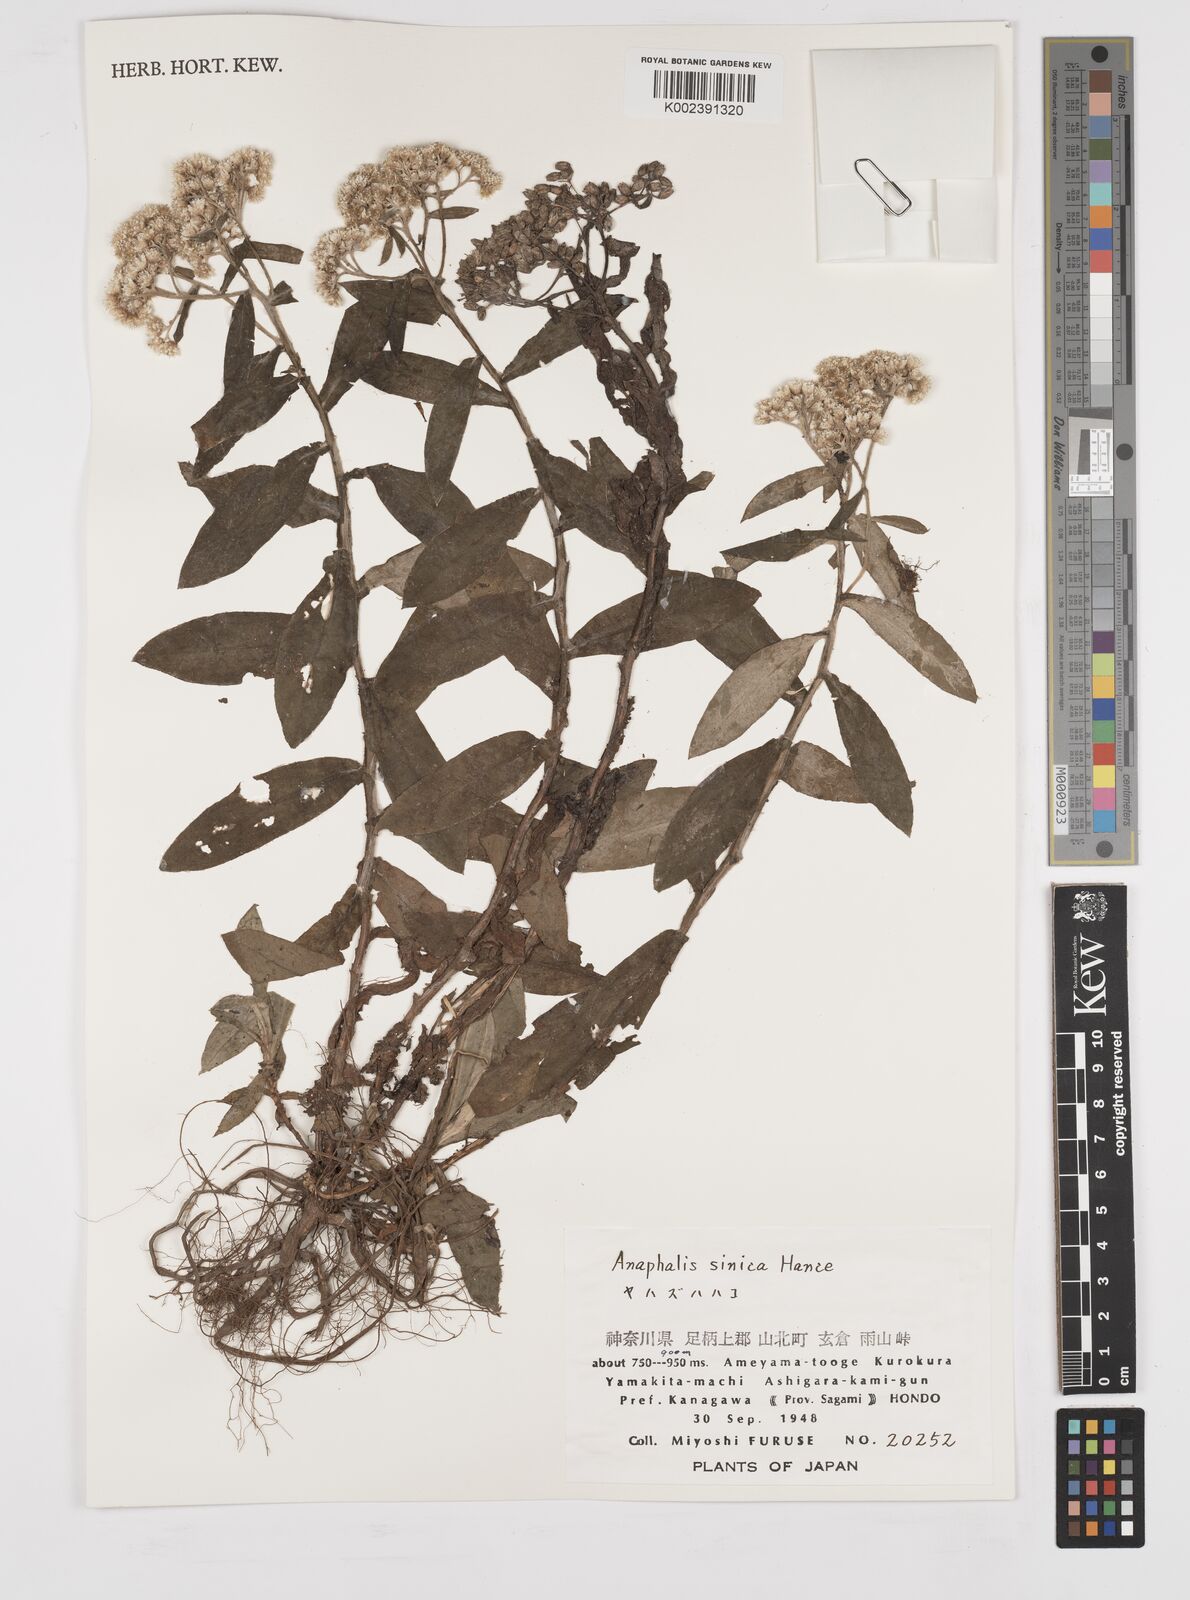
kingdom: Plantae
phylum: Tracheophyta
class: Magnoliopsida
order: Asterales
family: Asteraceae
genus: Anaphalis
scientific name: Anaphalis sinica
